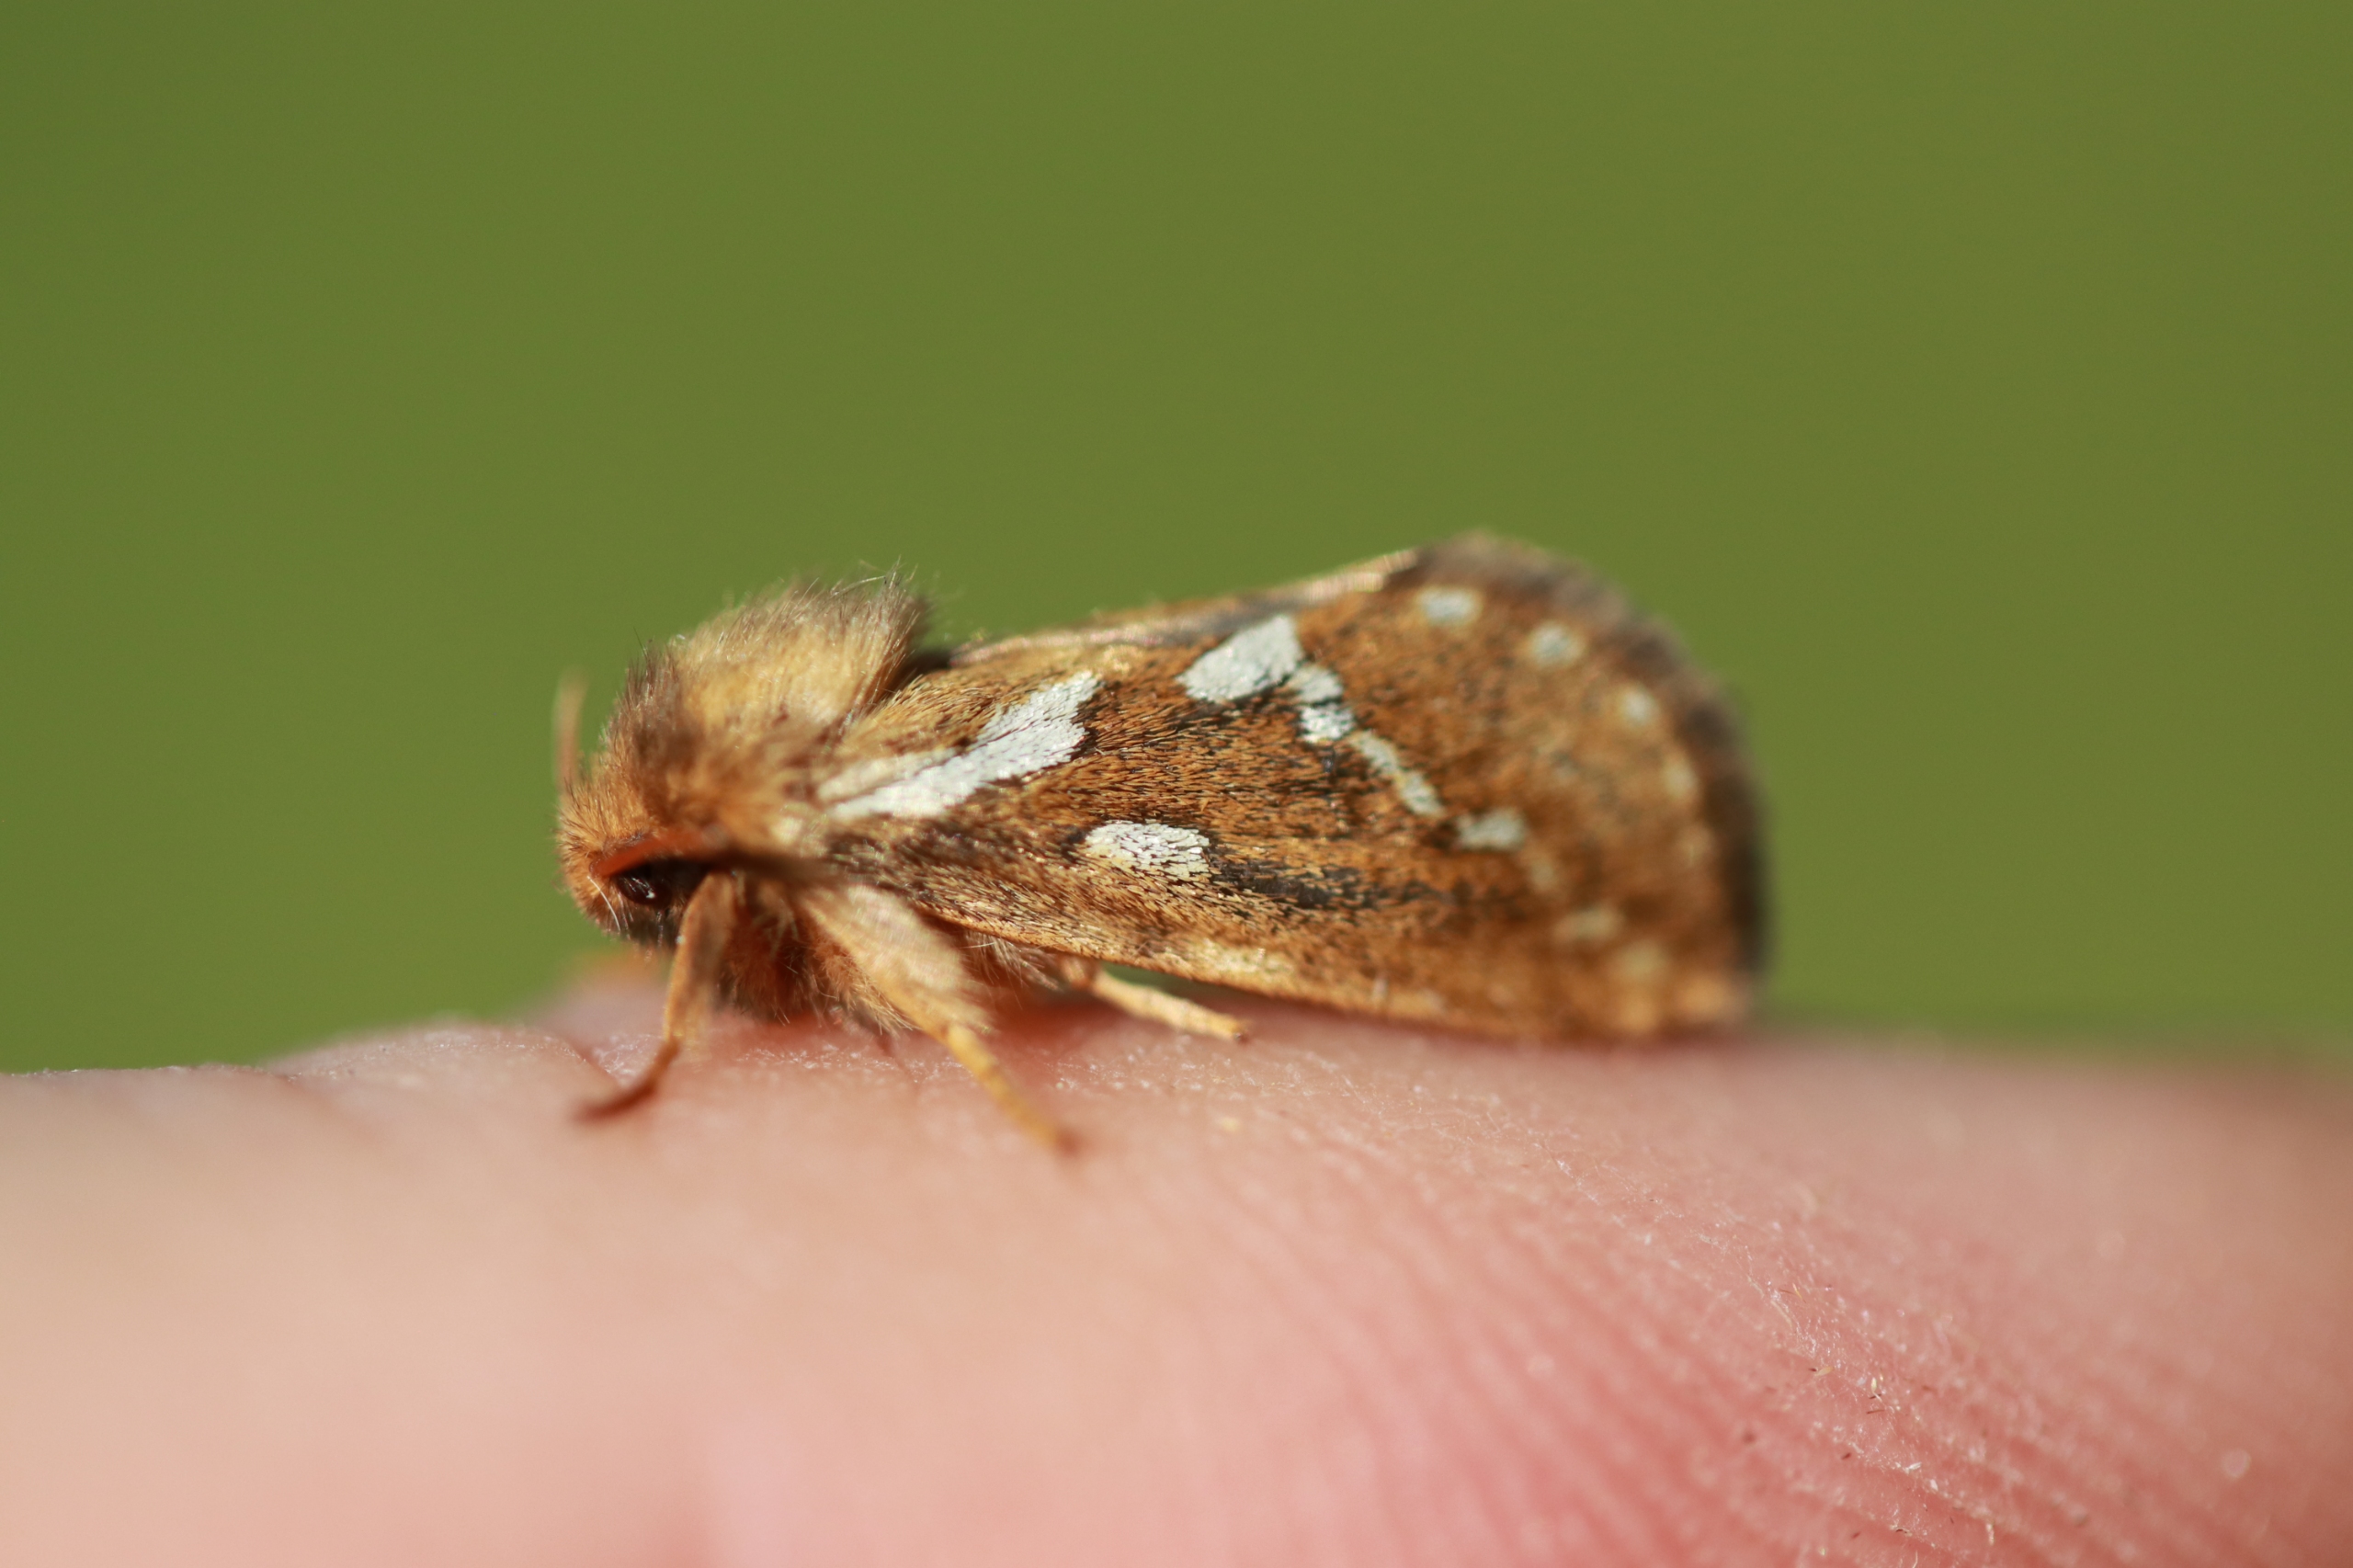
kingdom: Animalia
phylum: Arthropoda
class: Insecta
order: Lepidoptera
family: Hepialidae
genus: Korscheltellus
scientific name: Korscheltellus lupulina
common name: Konvalrodæder
